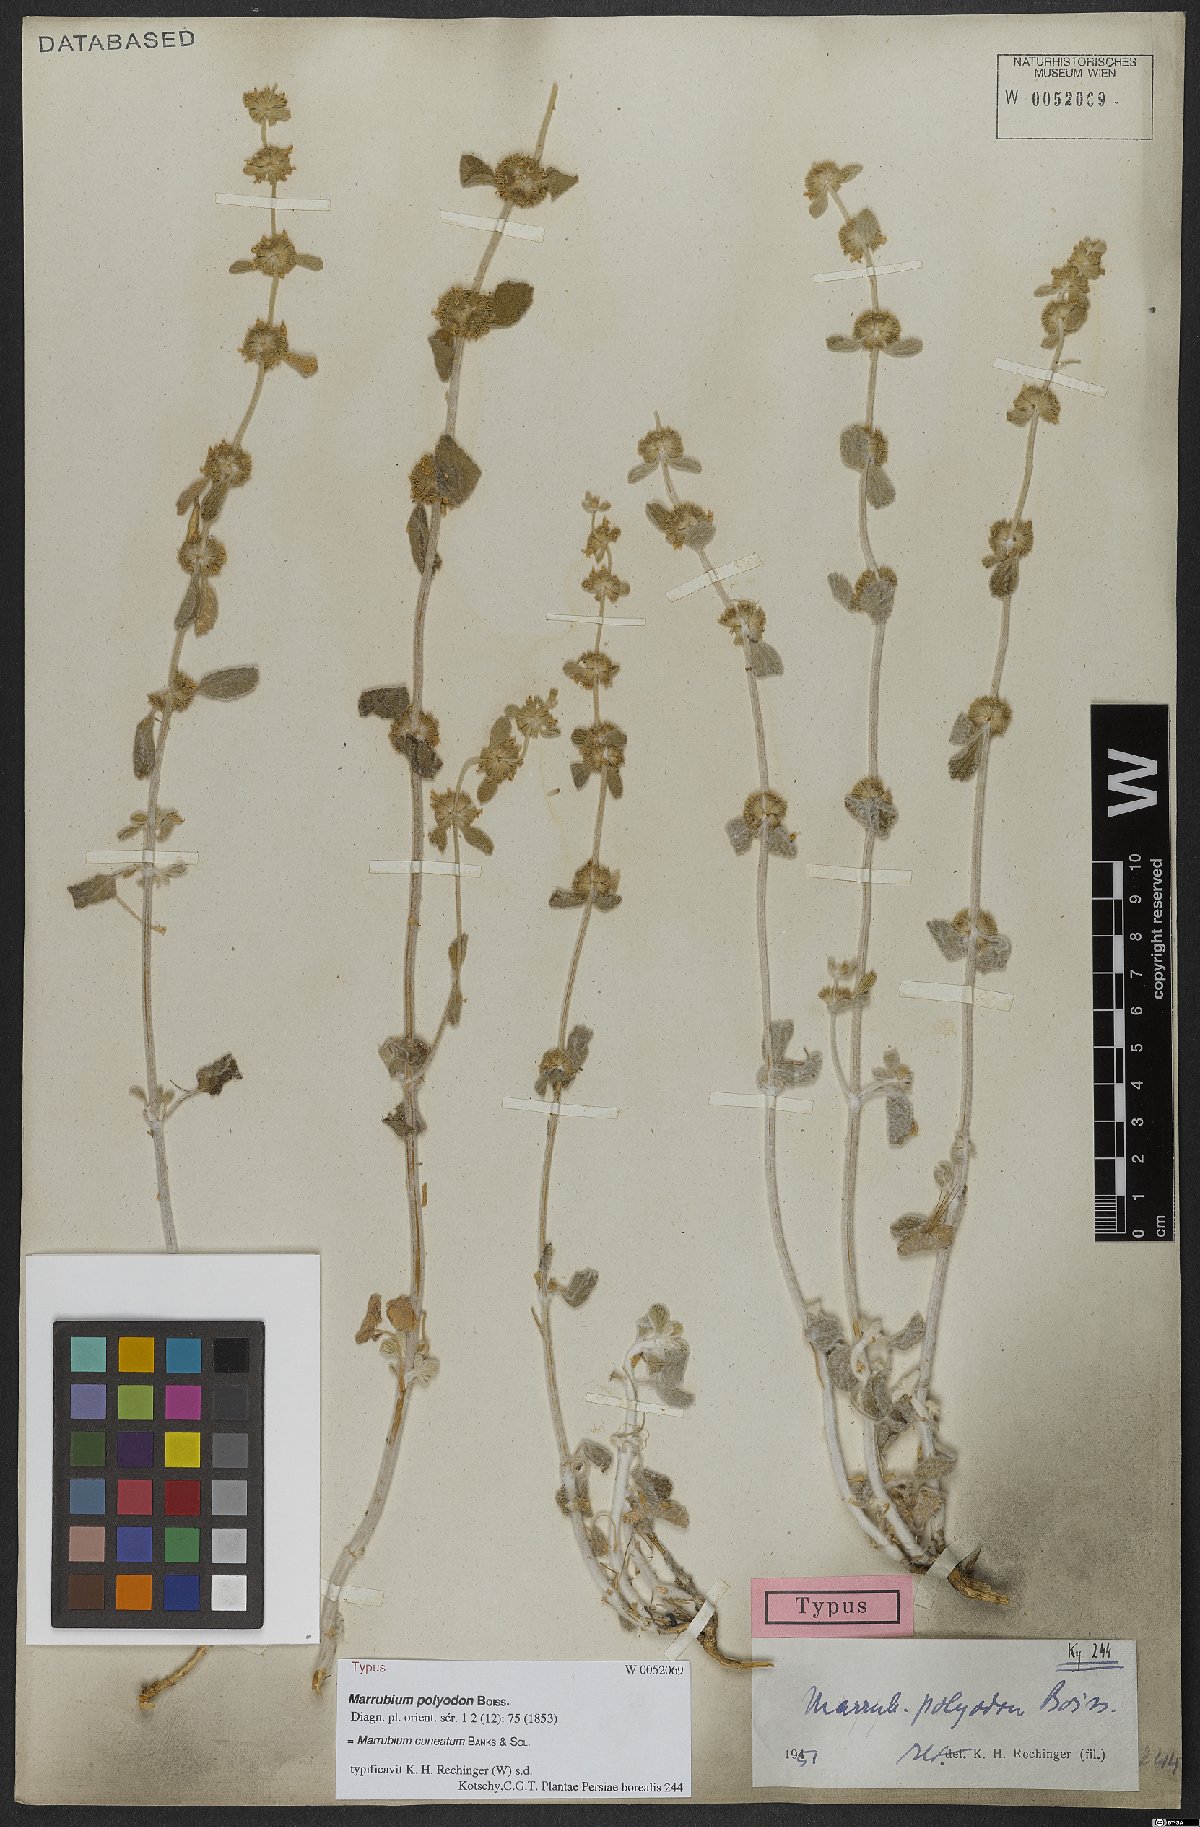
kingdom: Plantae
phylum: Tracheophyta
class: Magnoliopsida
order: Lamiales
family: Lamiaceae
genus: Marrubium
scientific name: Marrubium cuneatum
